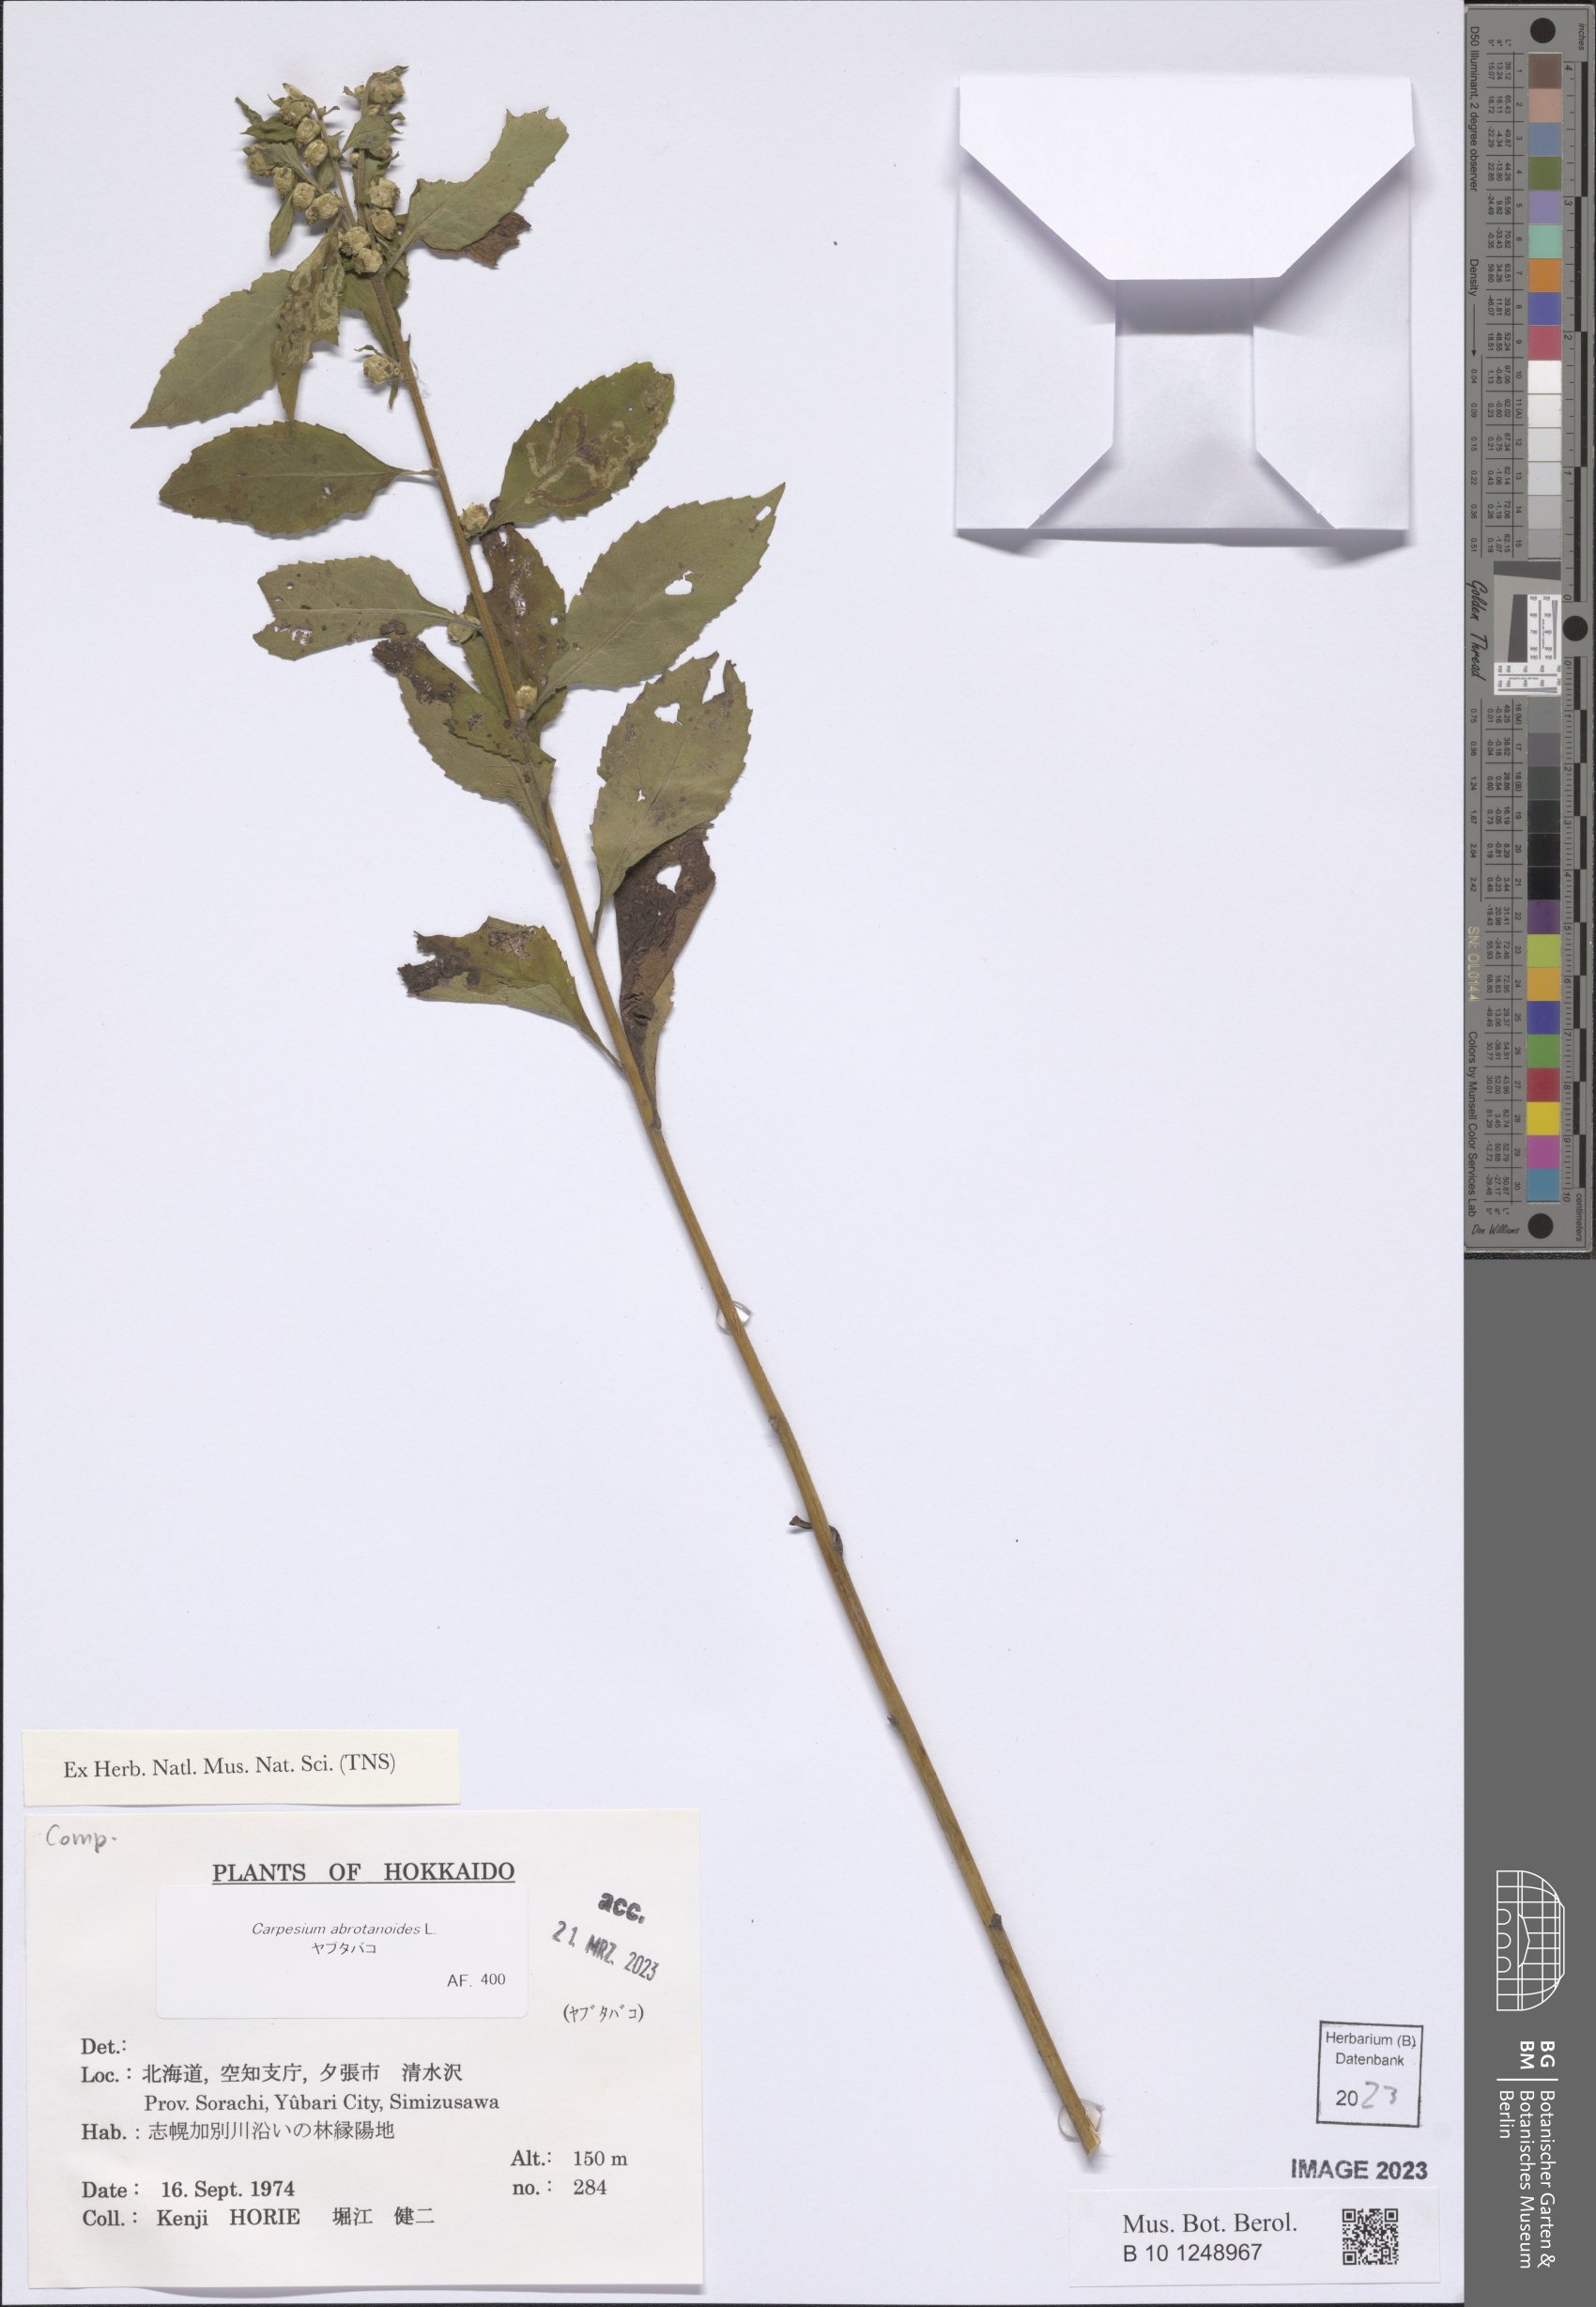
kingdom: Plantae
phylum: Tracheophyta
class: Magnoliopsida
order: Asterales
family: Asteraceae
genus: Carpesium
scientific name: Carpesium abrotanoides
